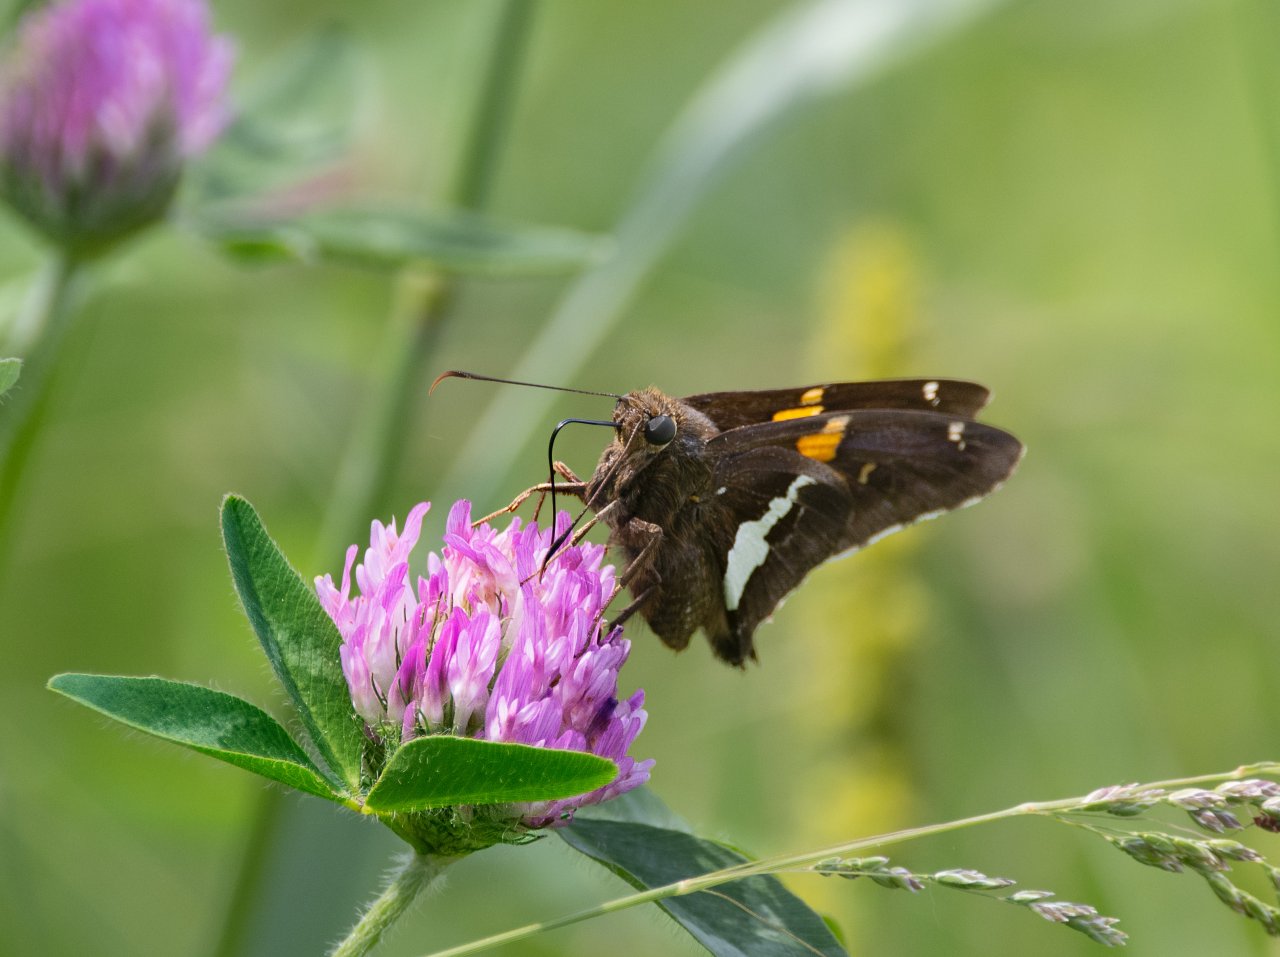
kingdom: Animalia
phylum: Arthropoda
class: Insecta
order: Lepidoptera
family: Hesperiidae
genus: Epargyreus
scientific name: Epargyreus clarus
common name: Silver-spotted Skipper
